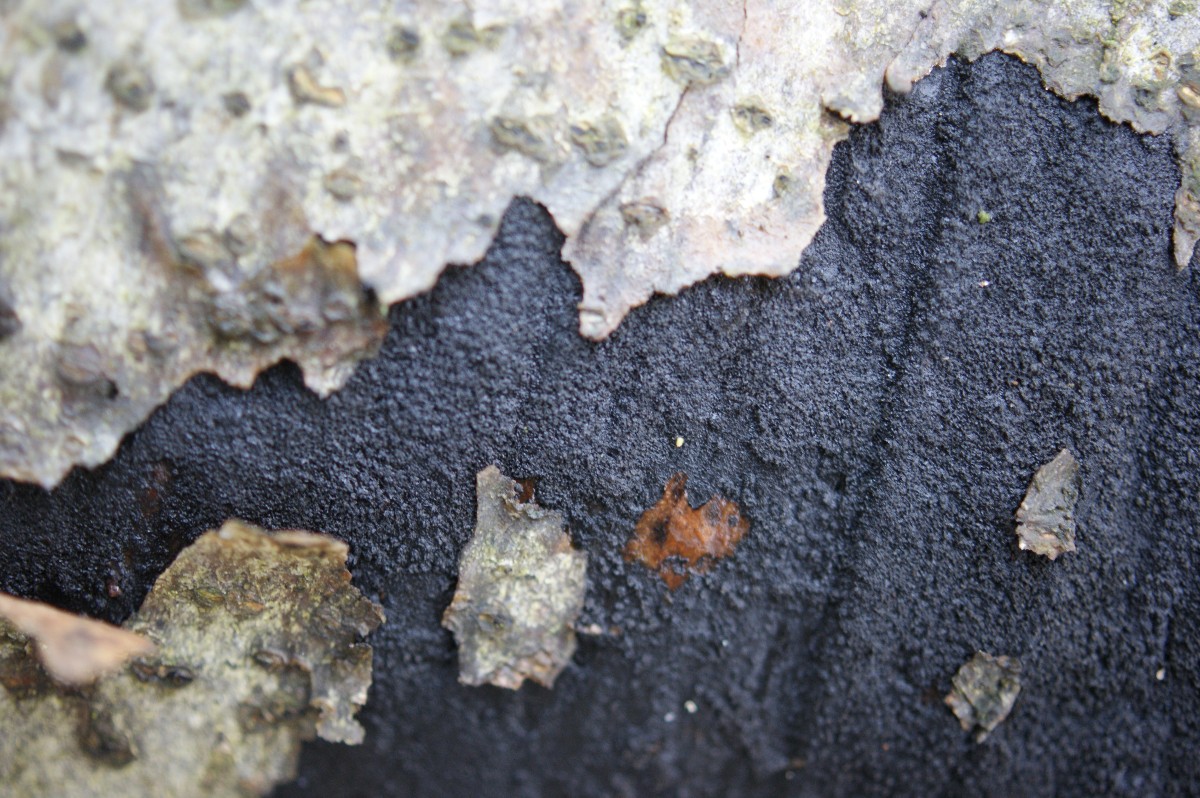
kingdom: Fungi
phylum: Ascomycota
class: Sordariomycetes
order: Xylariales
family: Diatrypaceae
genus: Eutypa
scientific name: Eutypa spinosa
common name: grov kulskorpe
